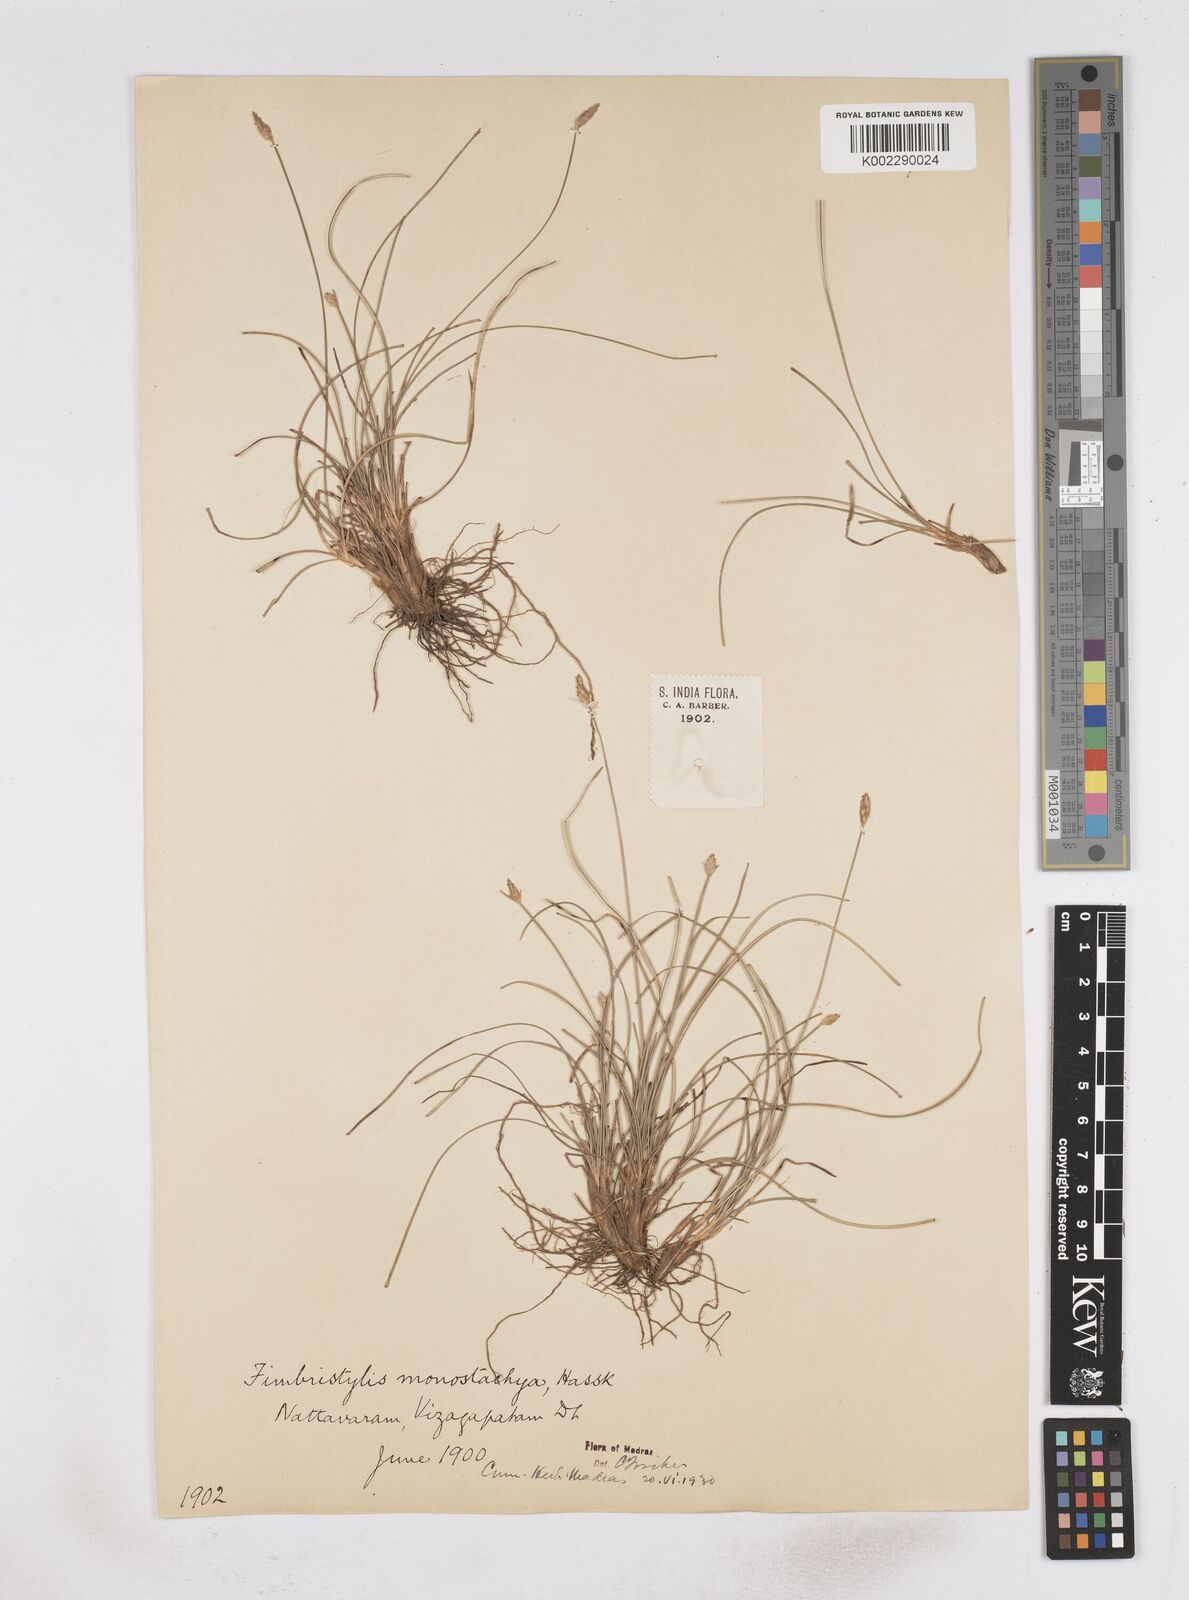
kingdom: Plantae
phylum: Tracheophyta
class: Liliopsida
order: Poales
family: Cyperaceae
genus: Abildgaardia
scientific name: Abildgaardia ovata
